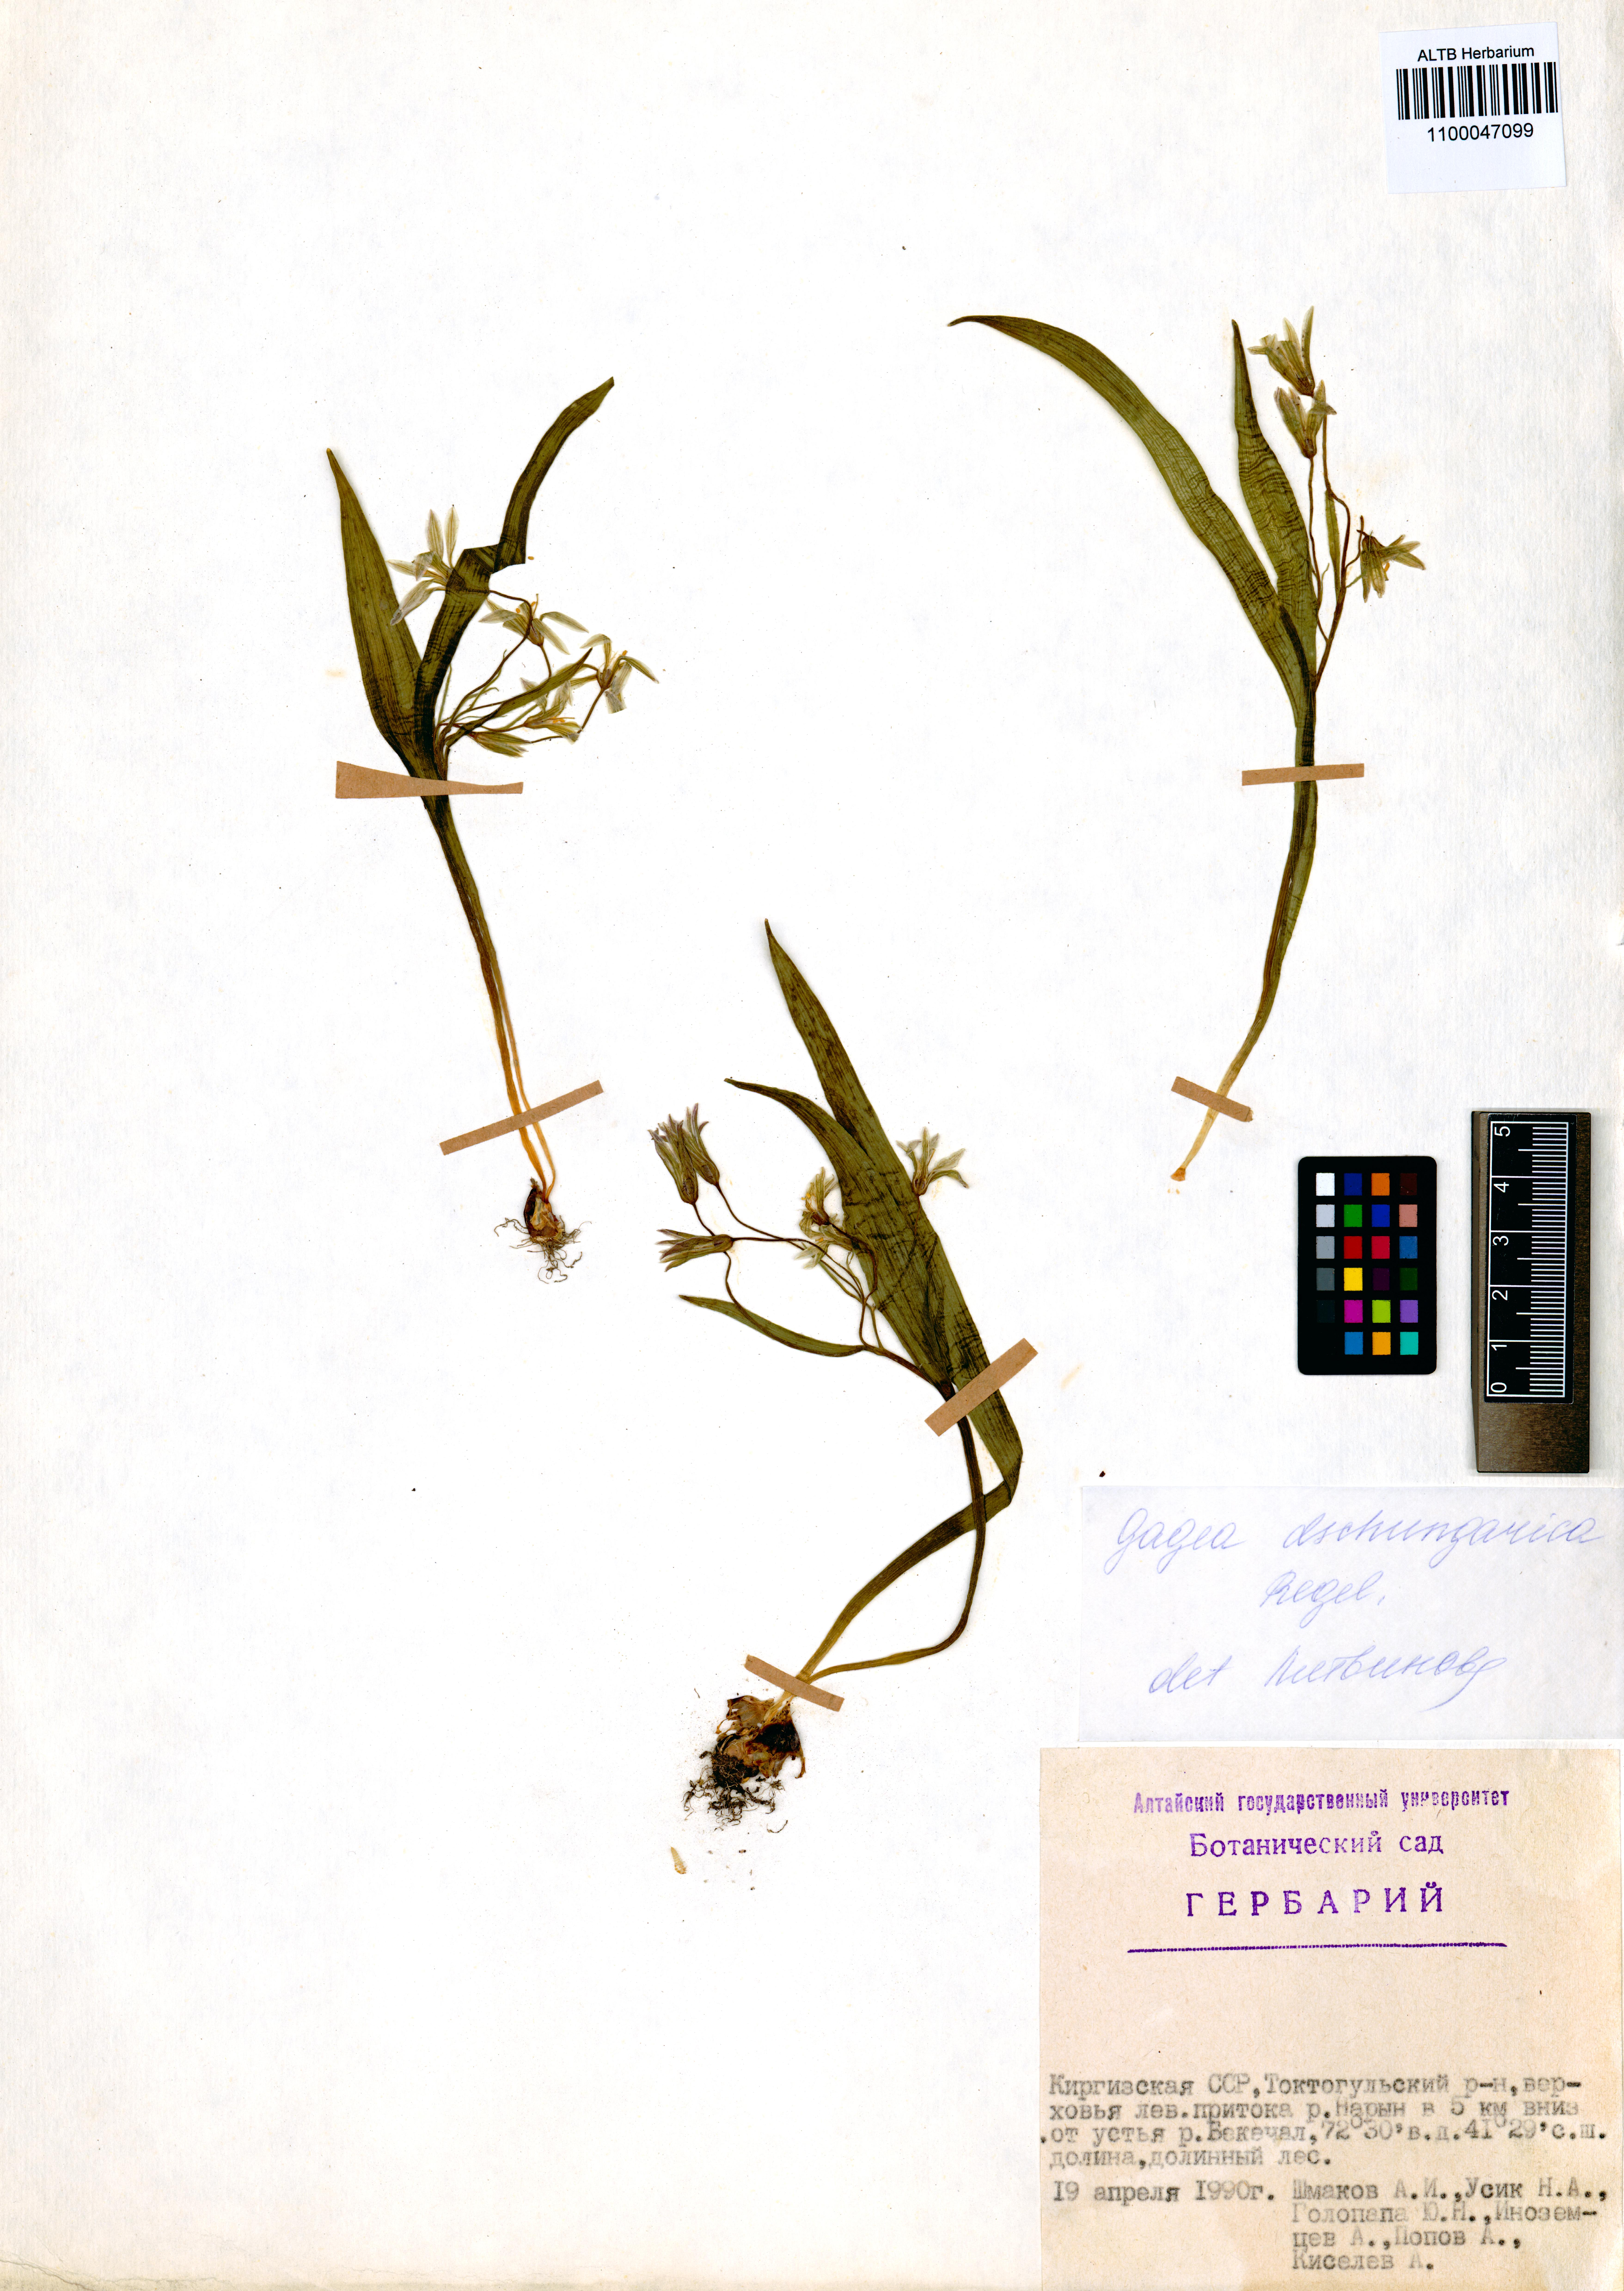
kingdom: Plantae
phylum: Tracheophyta
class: Liliopsida
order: Liliales
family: Liliaceae
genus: Gagea
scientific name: Gagea dschungarica
